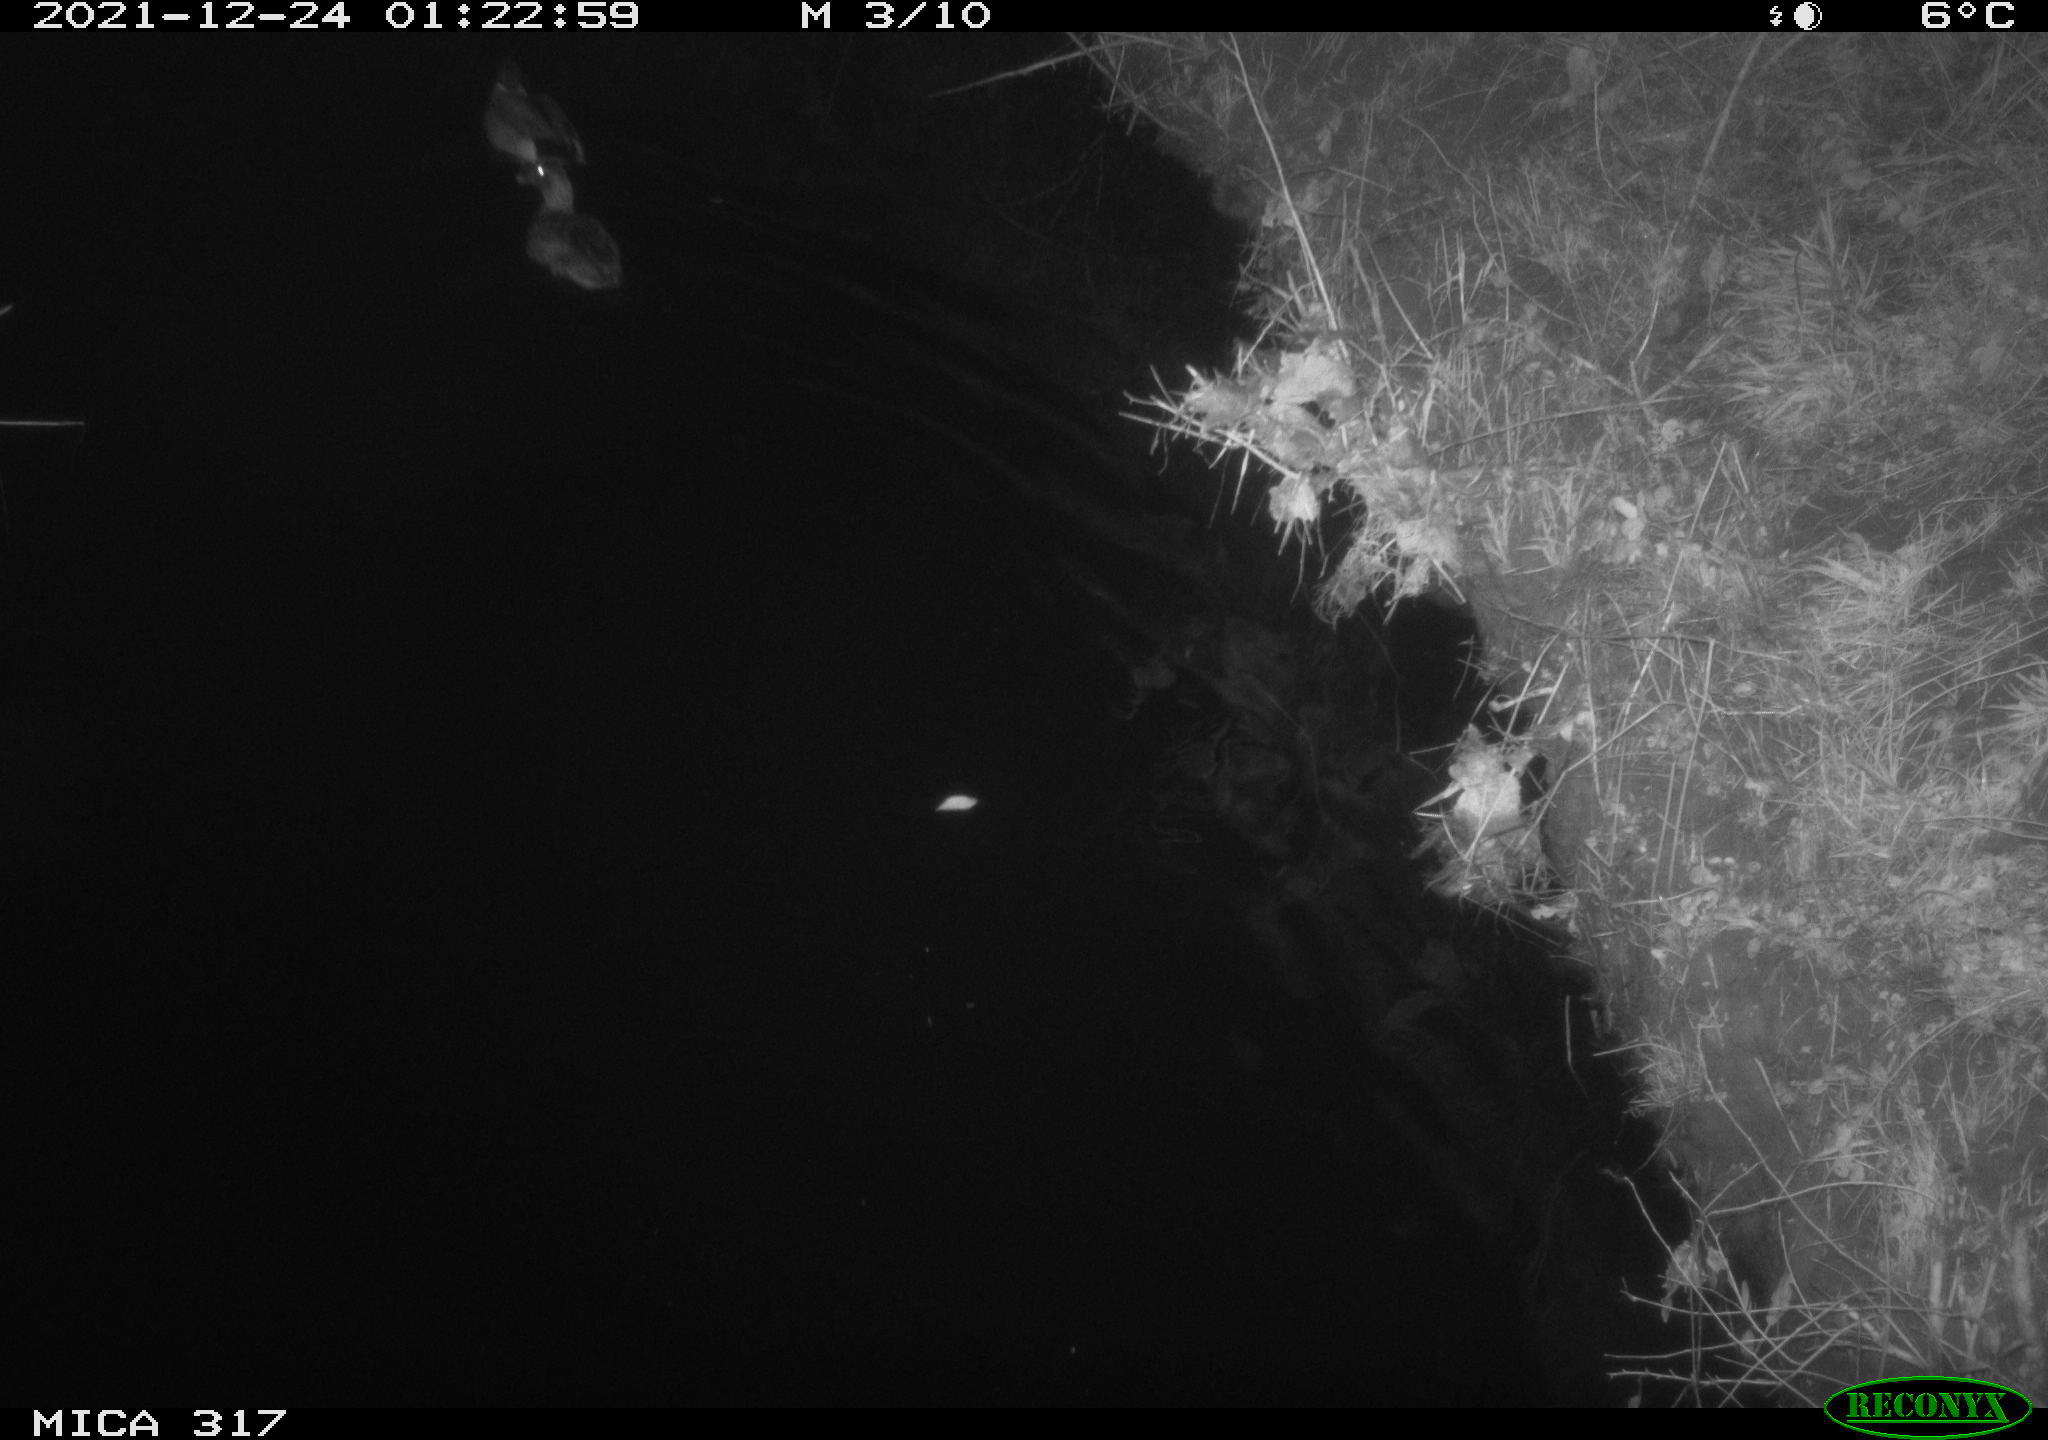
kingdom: Animalia
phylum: Chordata
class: Aves
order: Anseriformes
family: Anatidae
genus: Anas
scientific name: Anas platyrhynchos
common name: Mallard
